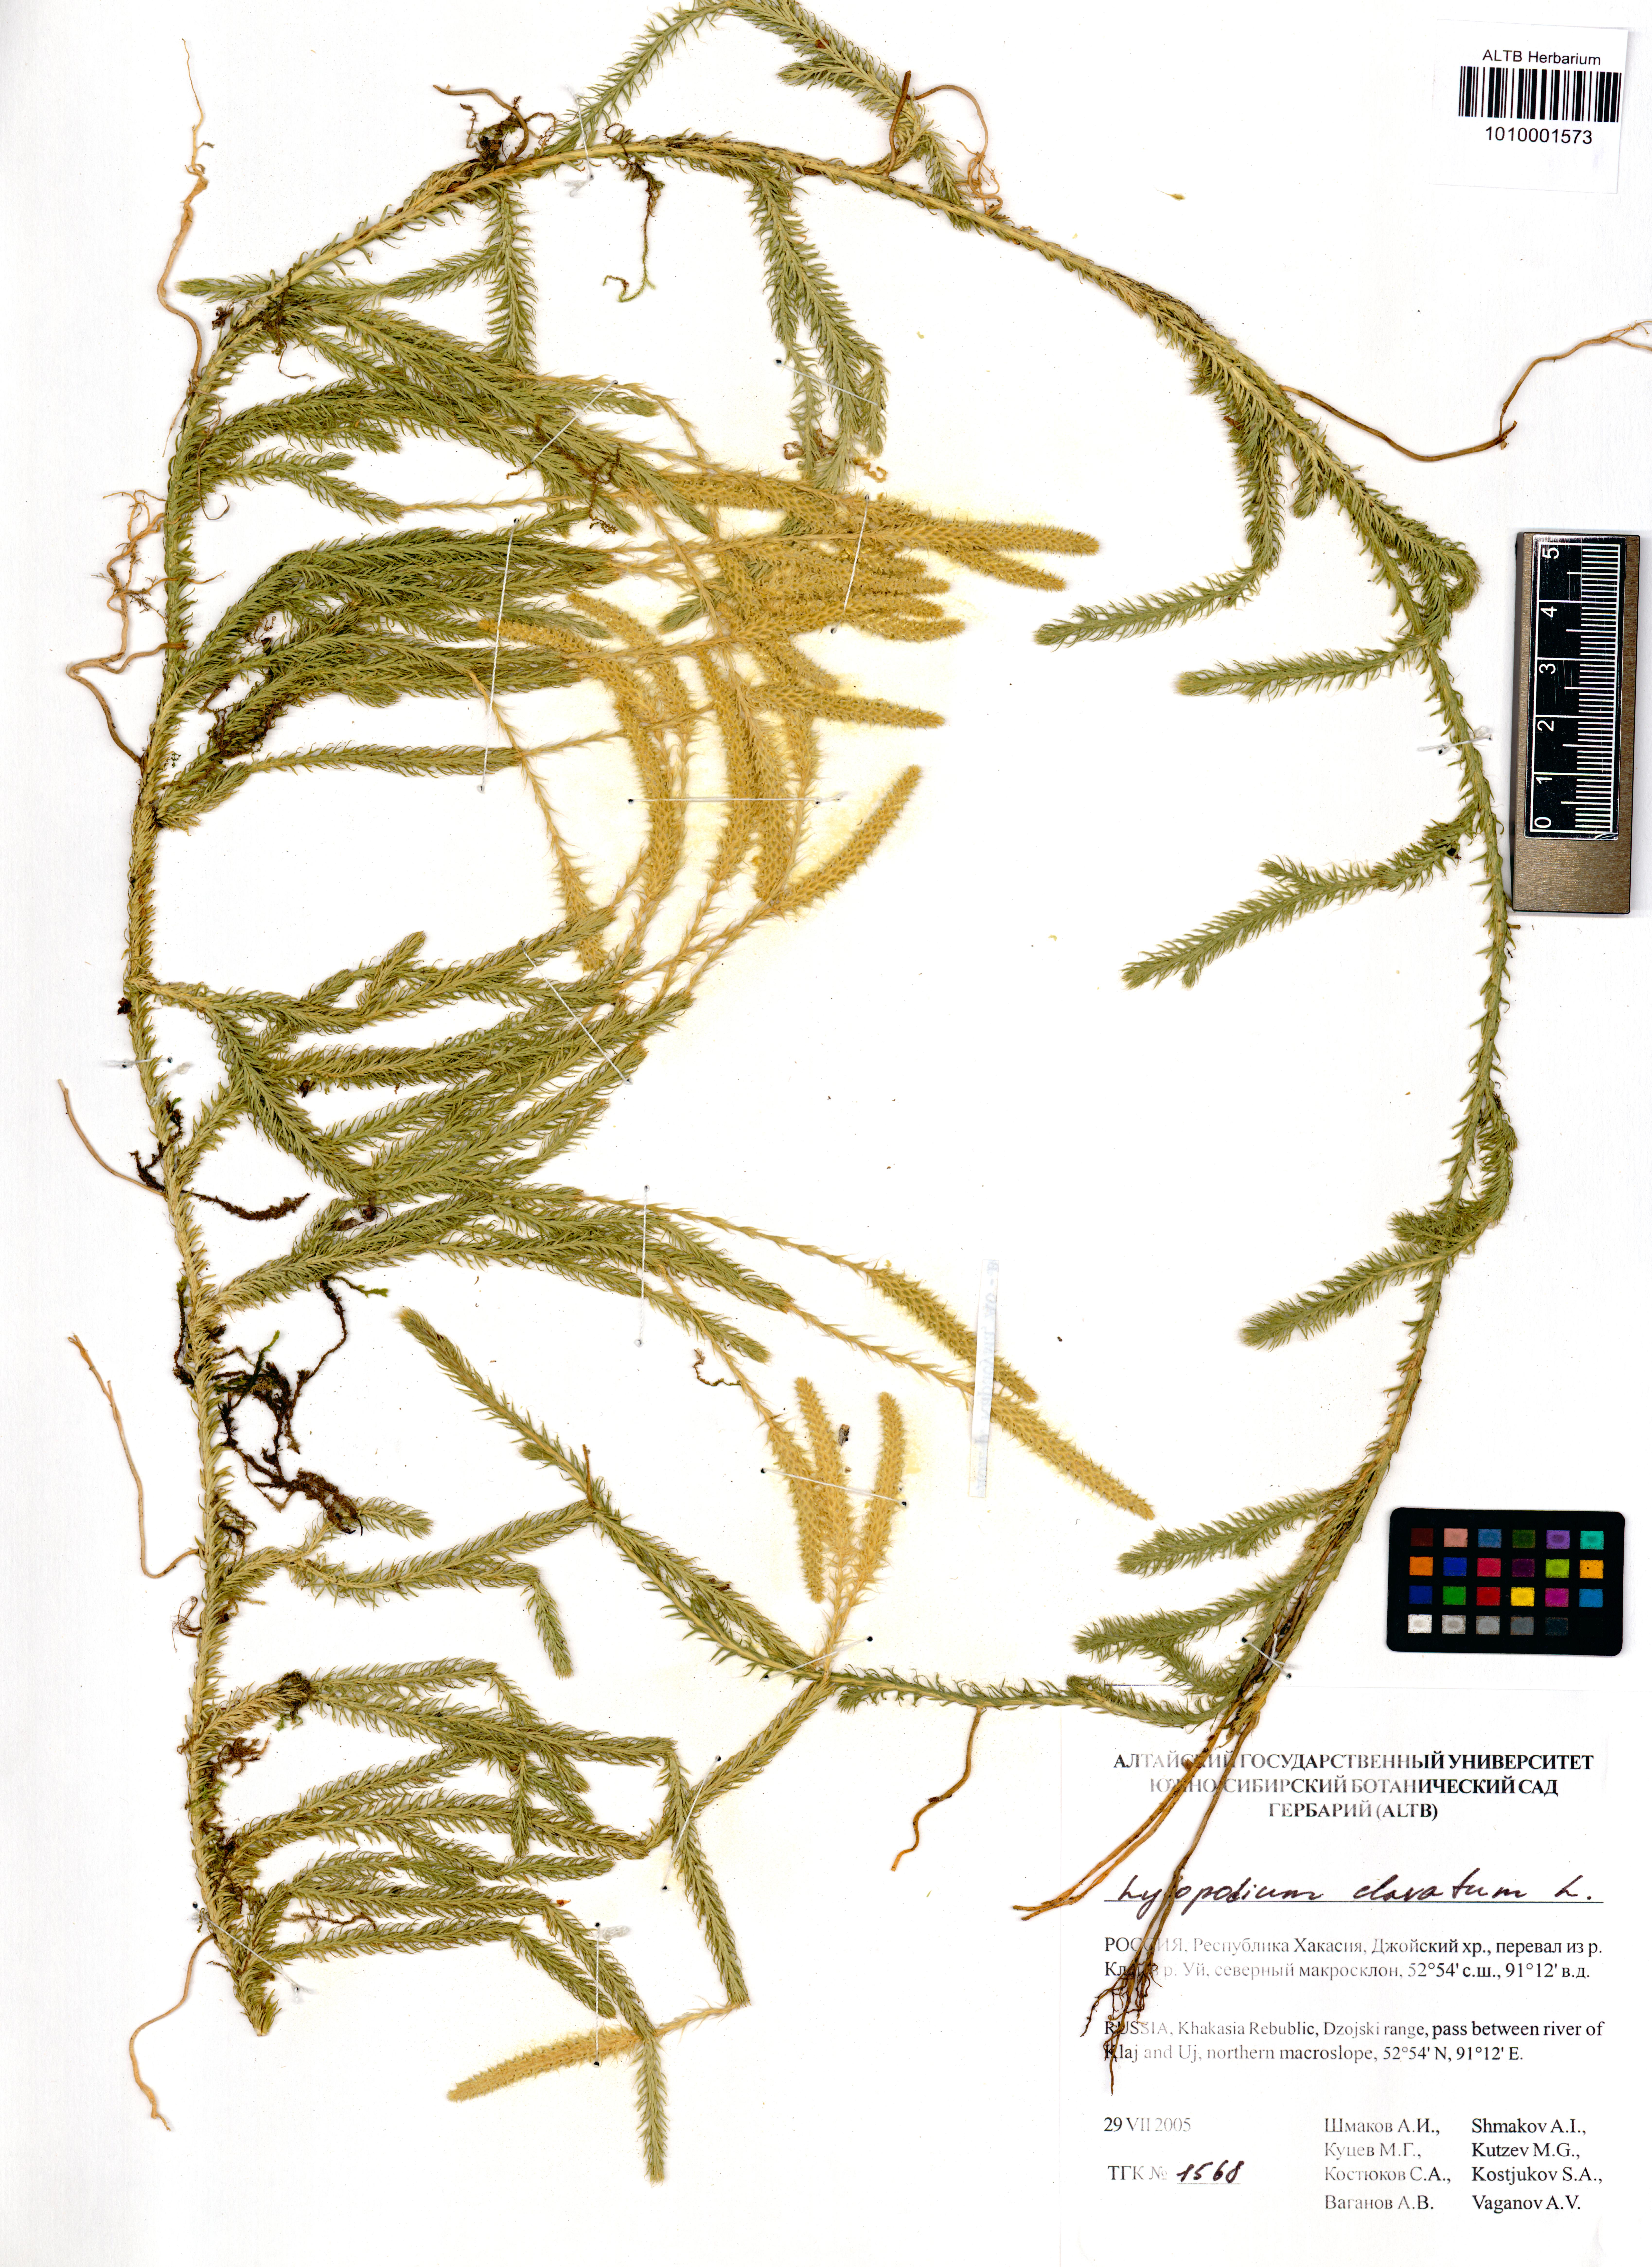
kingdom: Plantae
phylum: Tracheophyta
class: Lycopodiopsida
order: Lycopodiales
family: Lycopodiaceae
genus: Lycopodium
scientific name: Lycopodium clavatum
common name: Stag's-horn clubmoss
